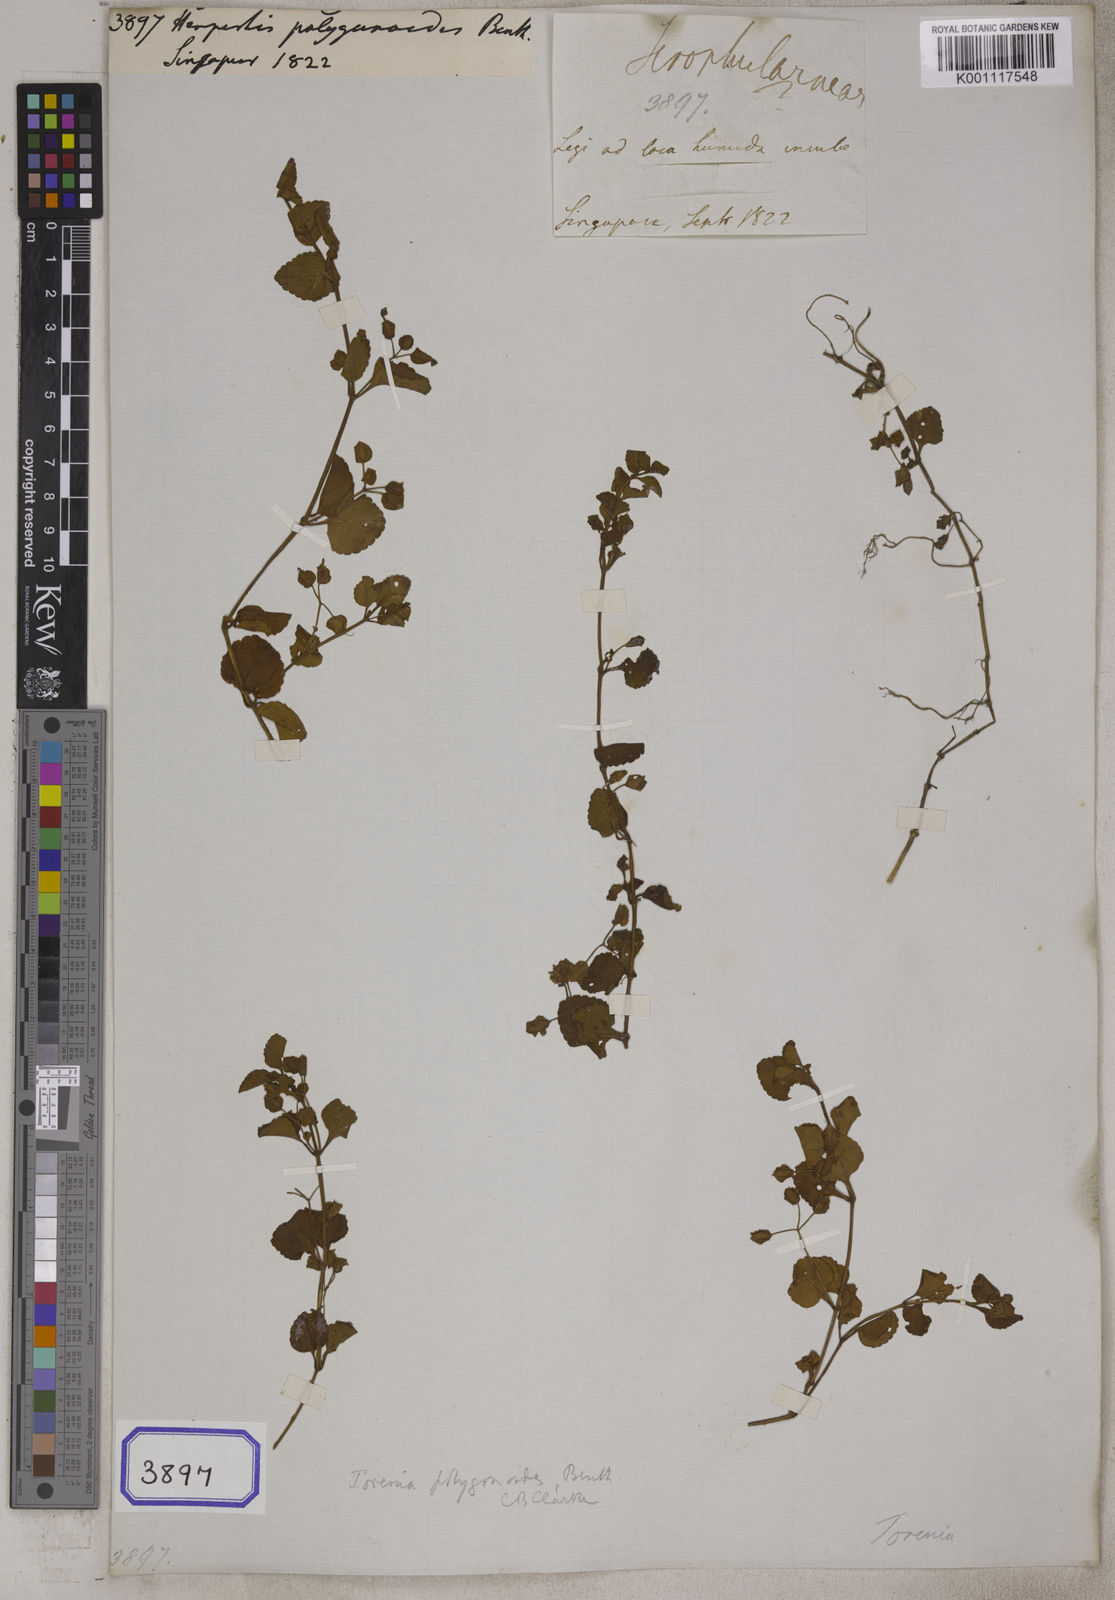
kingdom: Plantae
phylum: Tracheophyta
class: Magnoliopsida
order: Lamiales
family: Plantaginaceae
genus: Bacopa
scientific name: Bacopa
